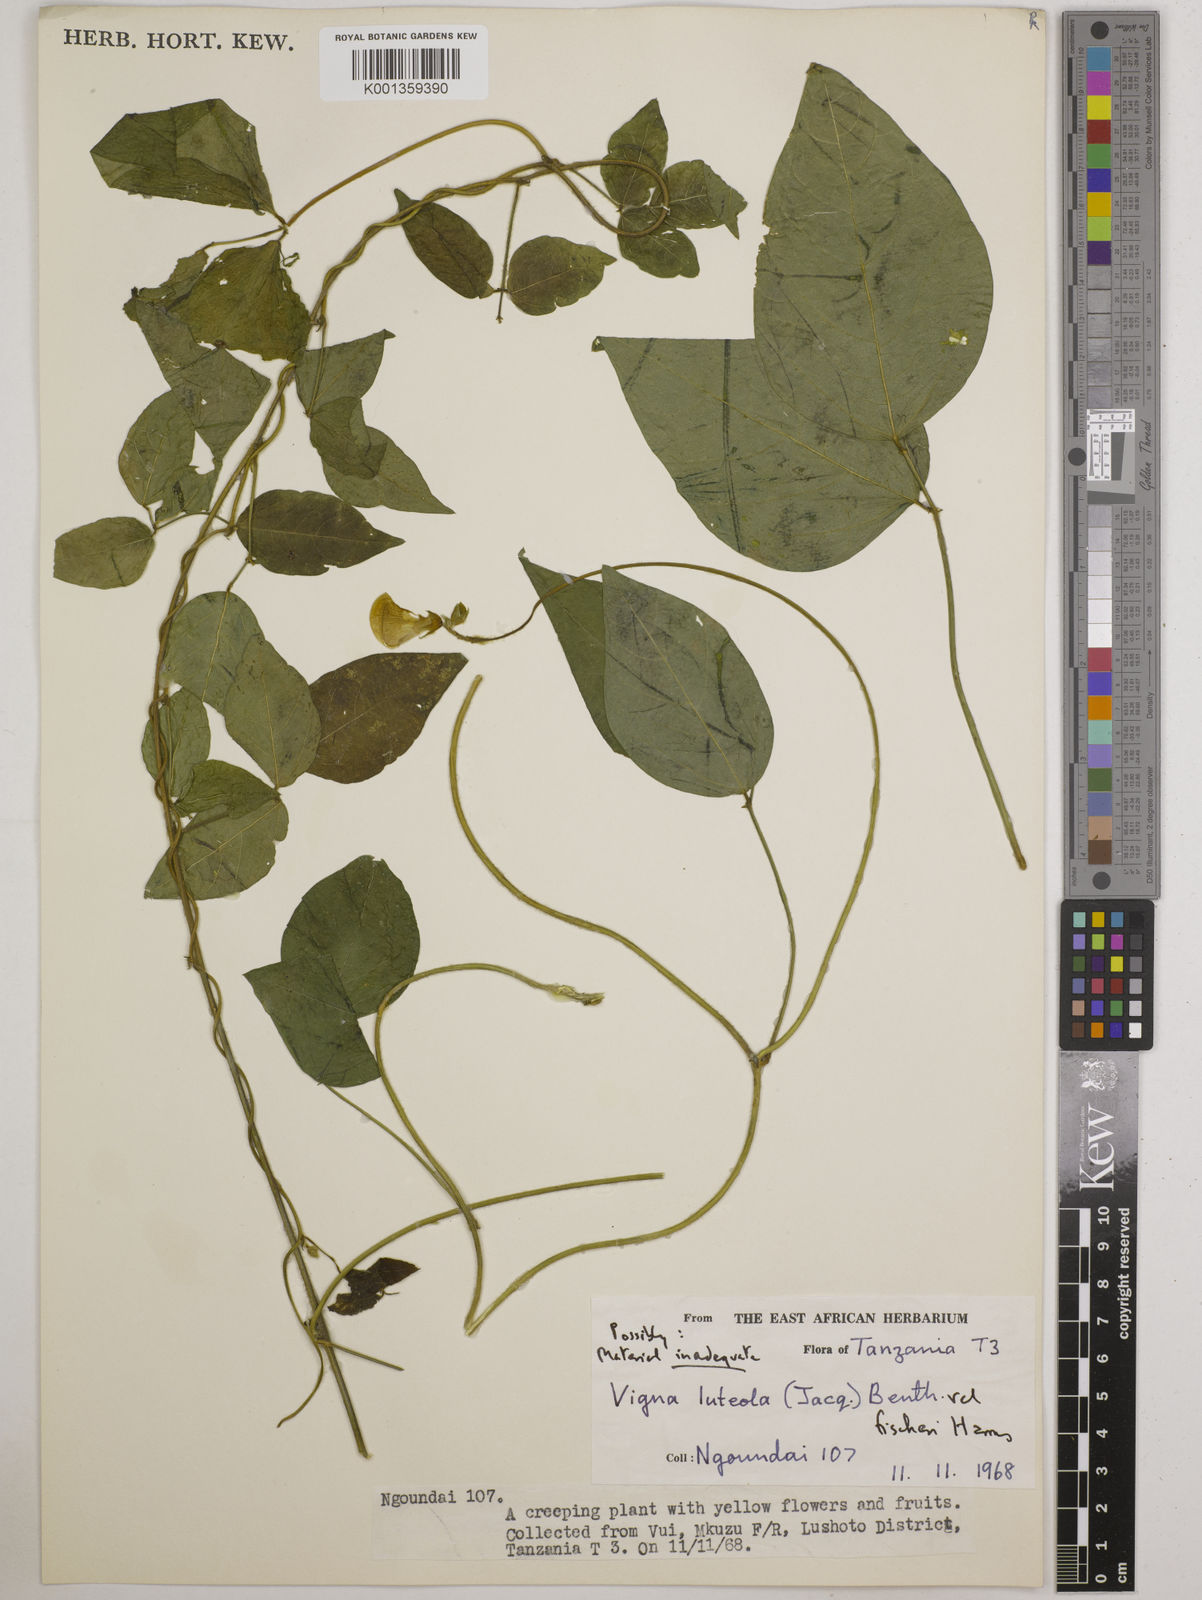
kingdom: Plantae
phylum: Tracheophyta
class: Magnoliopsida
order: Fabales
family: Fabaceae
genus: Vigna
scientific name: Vigna luteola
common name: Hairypod cowpea
